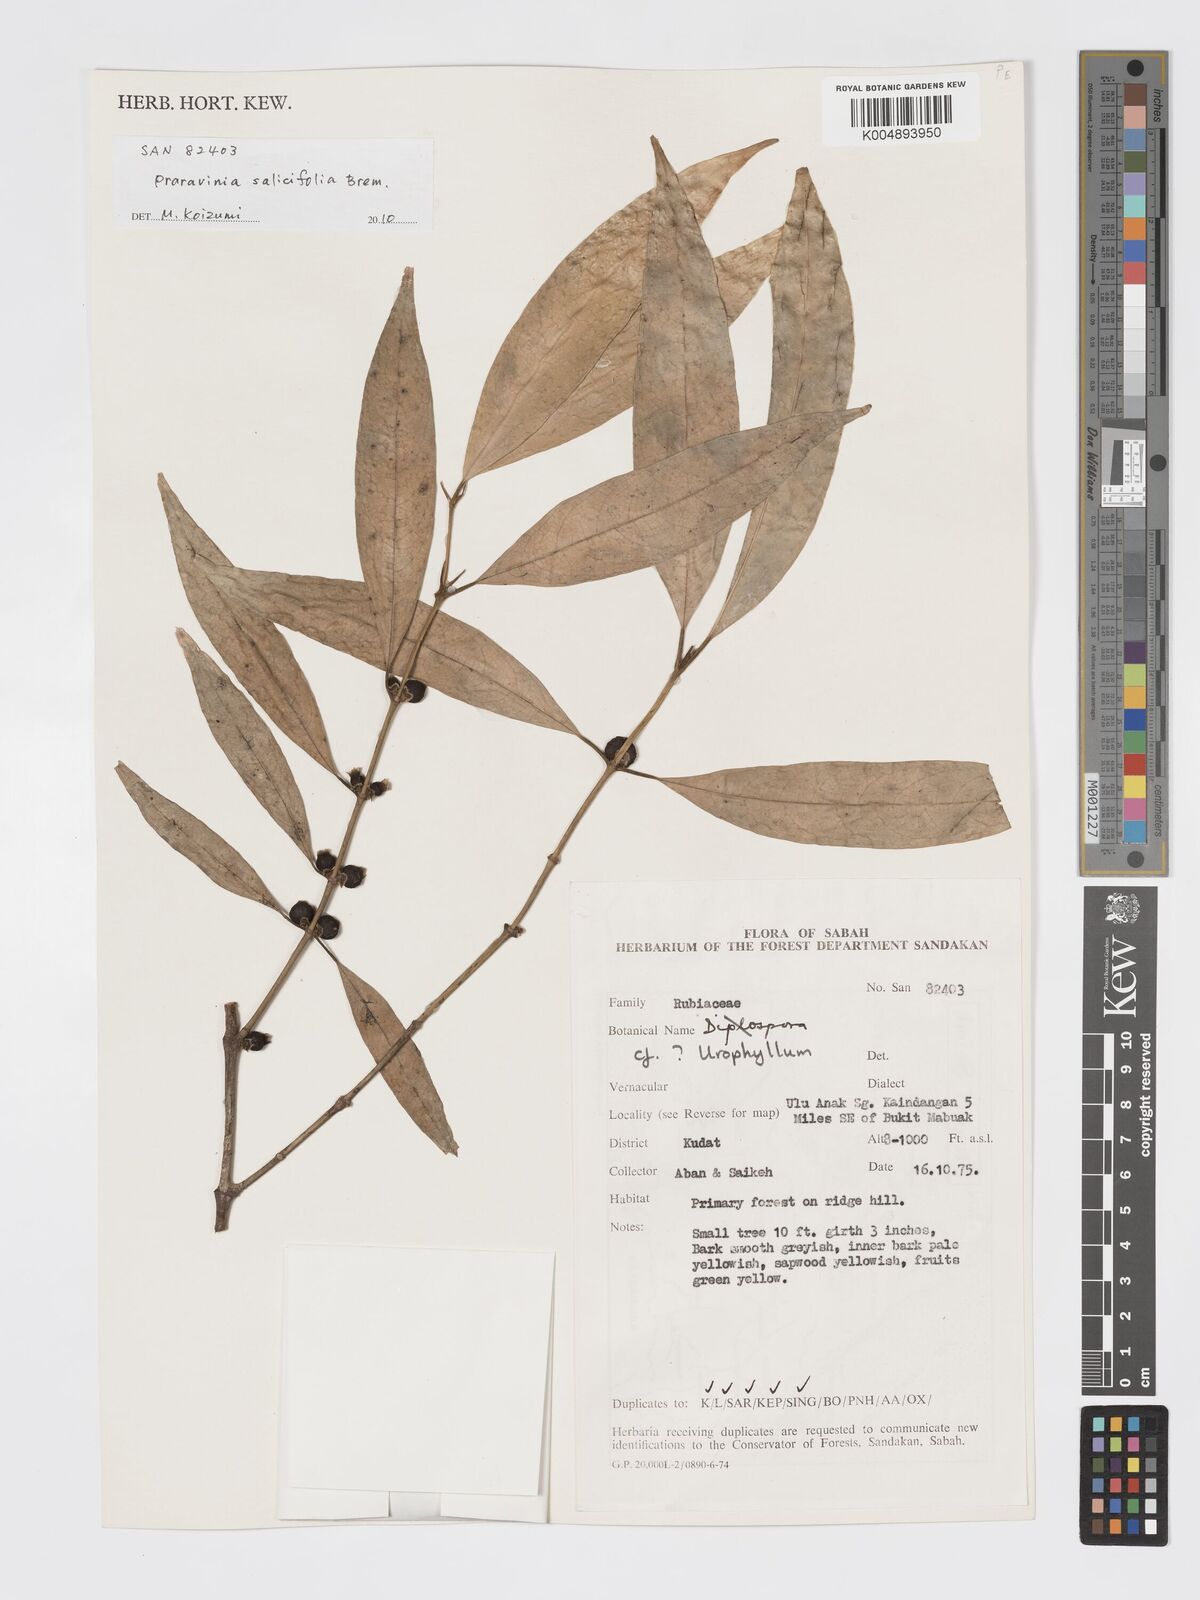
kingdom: Plantae
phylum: Tracheophyta
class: Magnoliopsida
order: Gentianales
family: Rubiaceae
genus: Praravinia
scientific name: Praravinia salicifolia
